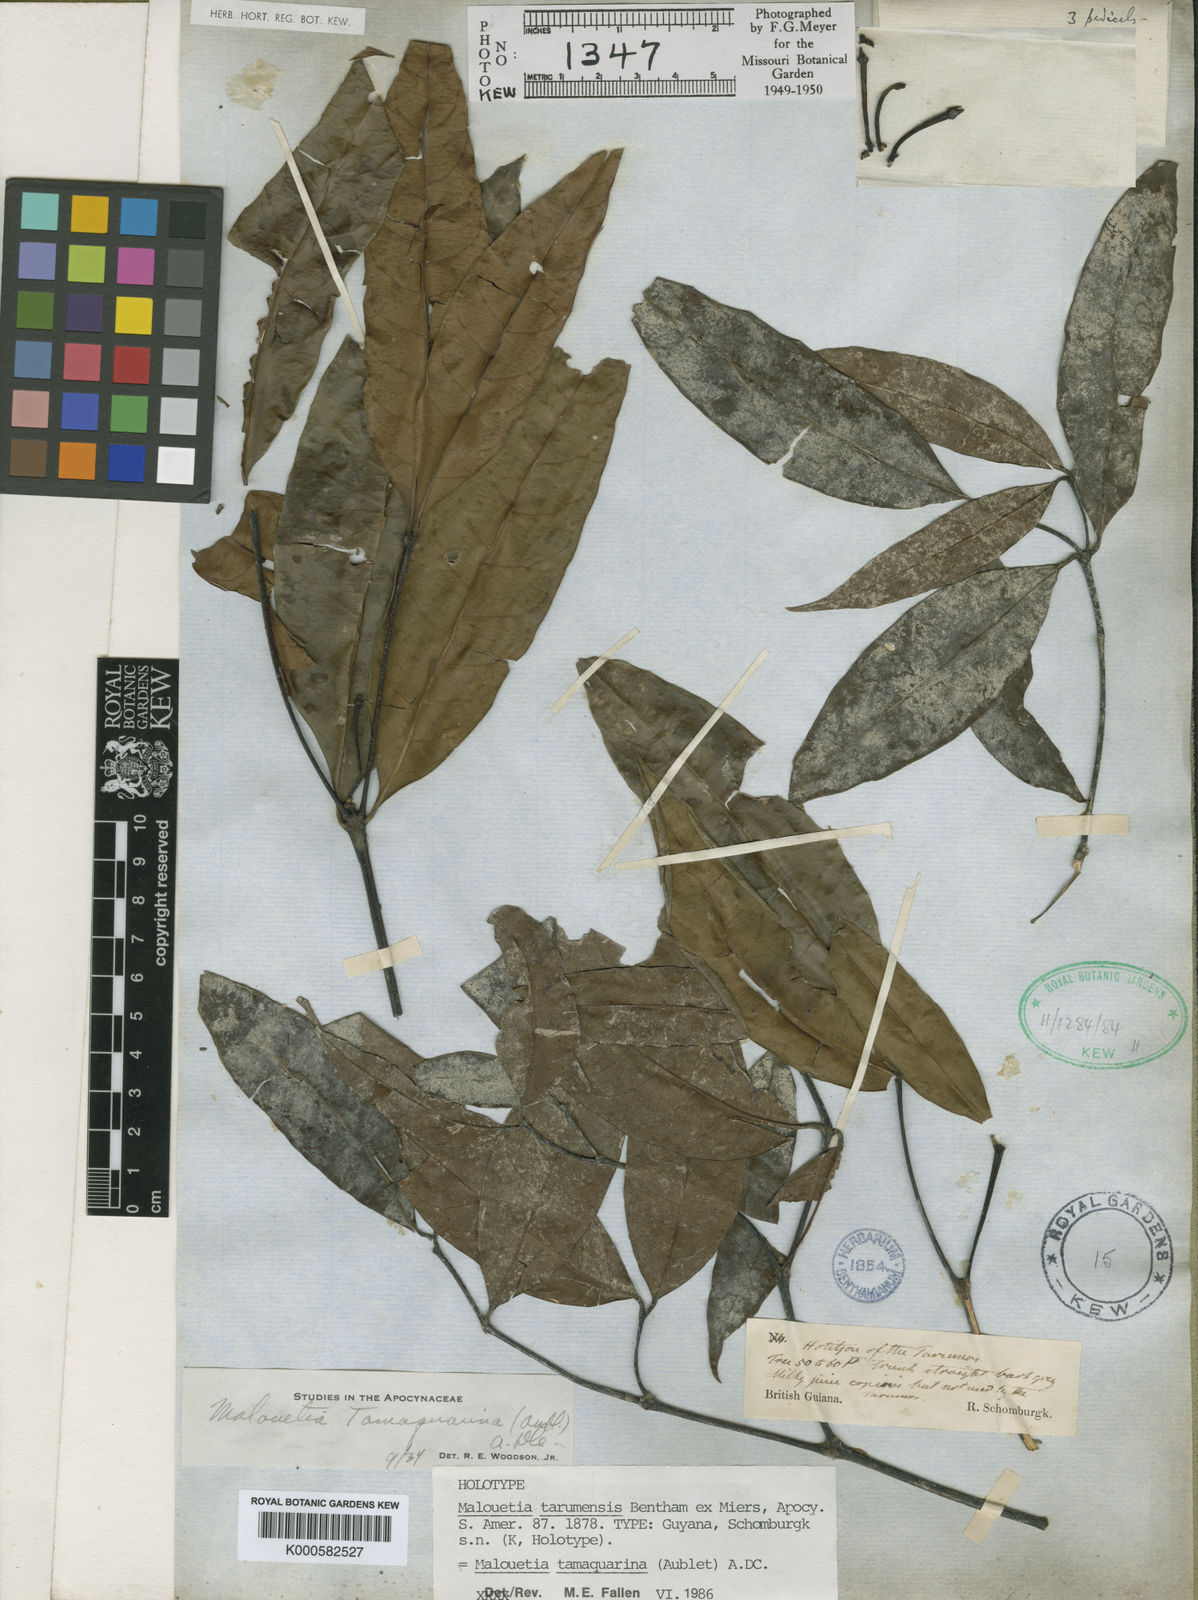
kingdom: Plantae
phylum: Tracheophyta
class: Magnoliopsida
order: Gentianales
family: Apocynaceae
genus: Malouetia
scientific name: Malouetia tamaquarina
